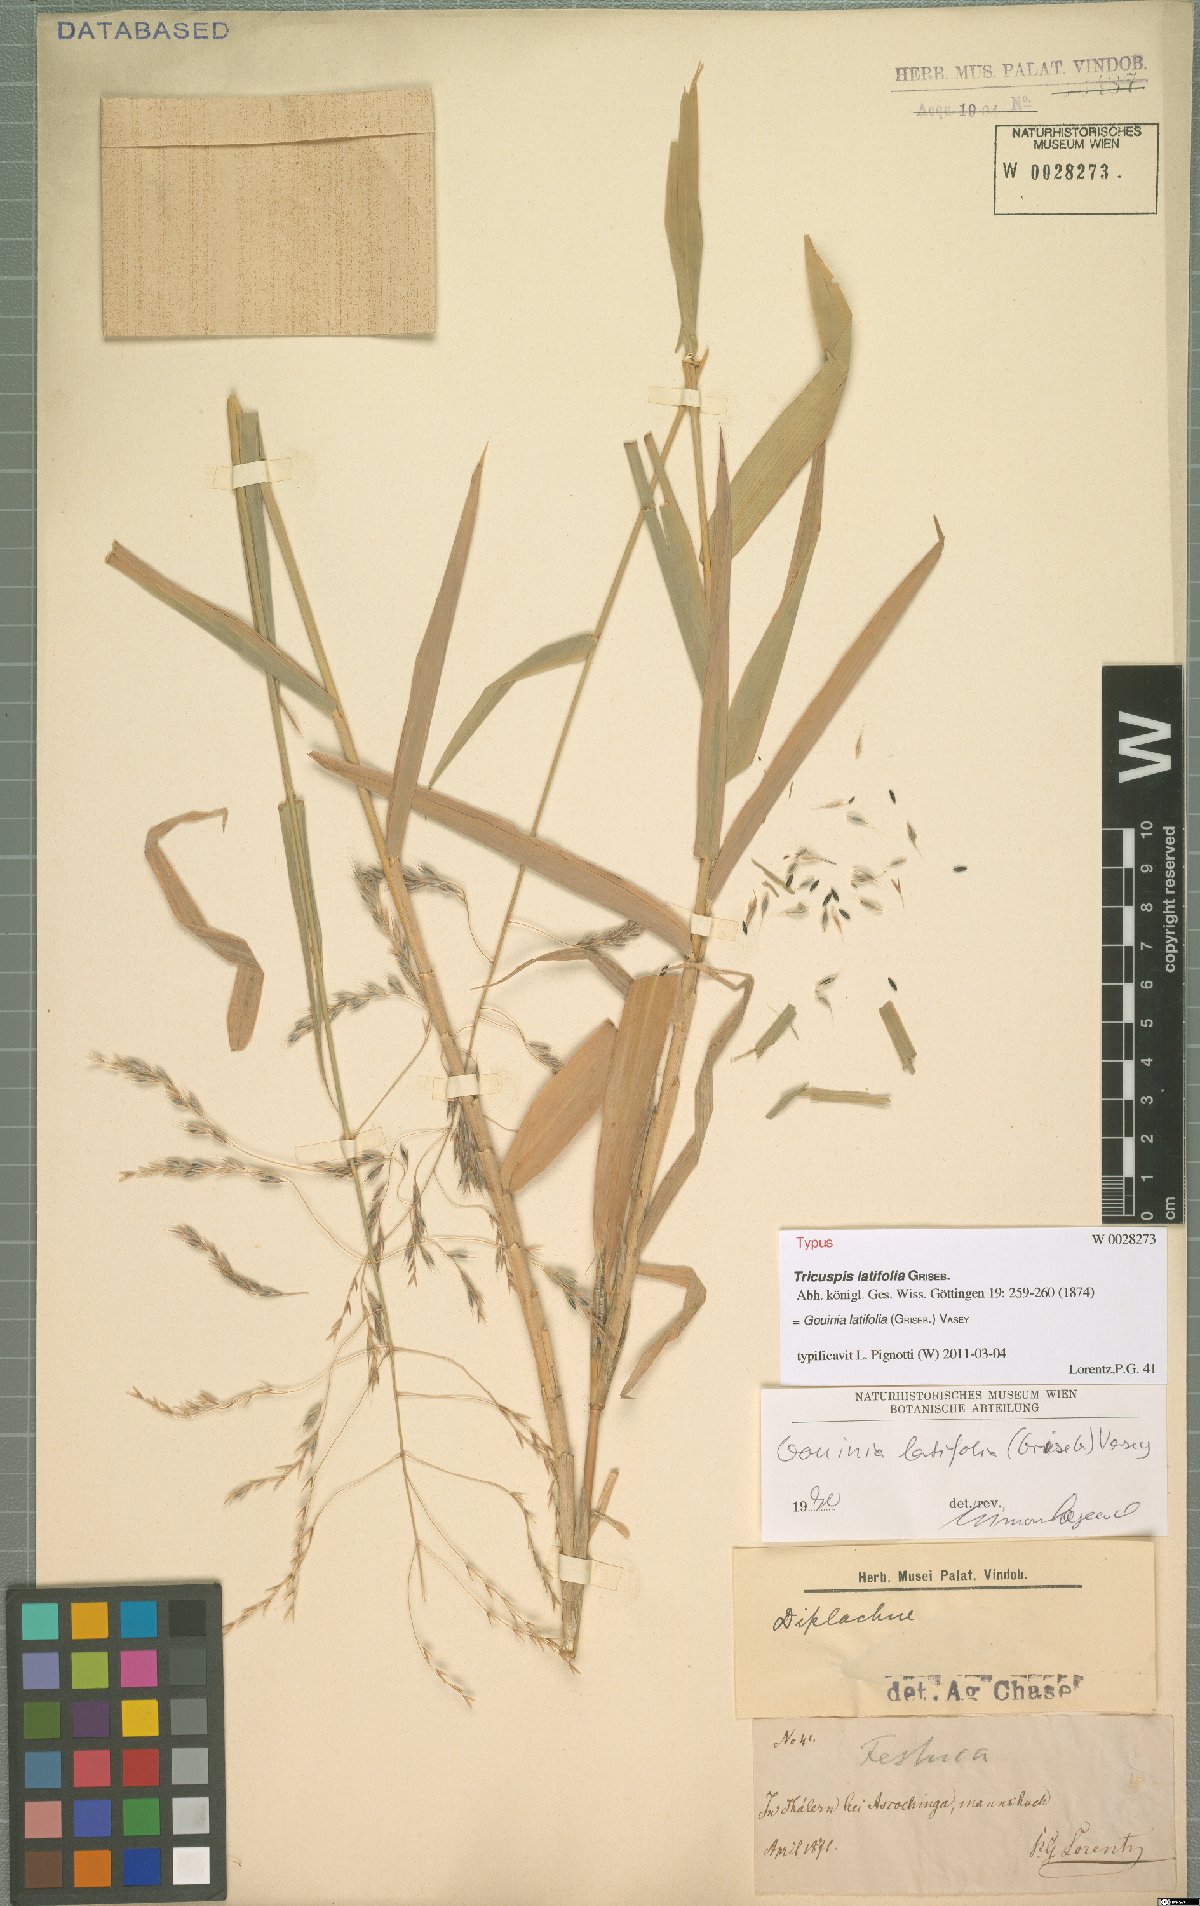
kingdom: Plantae
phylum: Tracheophyta
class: Liliopsida
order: Poales
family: Poaceae
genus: Gouinia
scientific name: Gouinia latifolia
